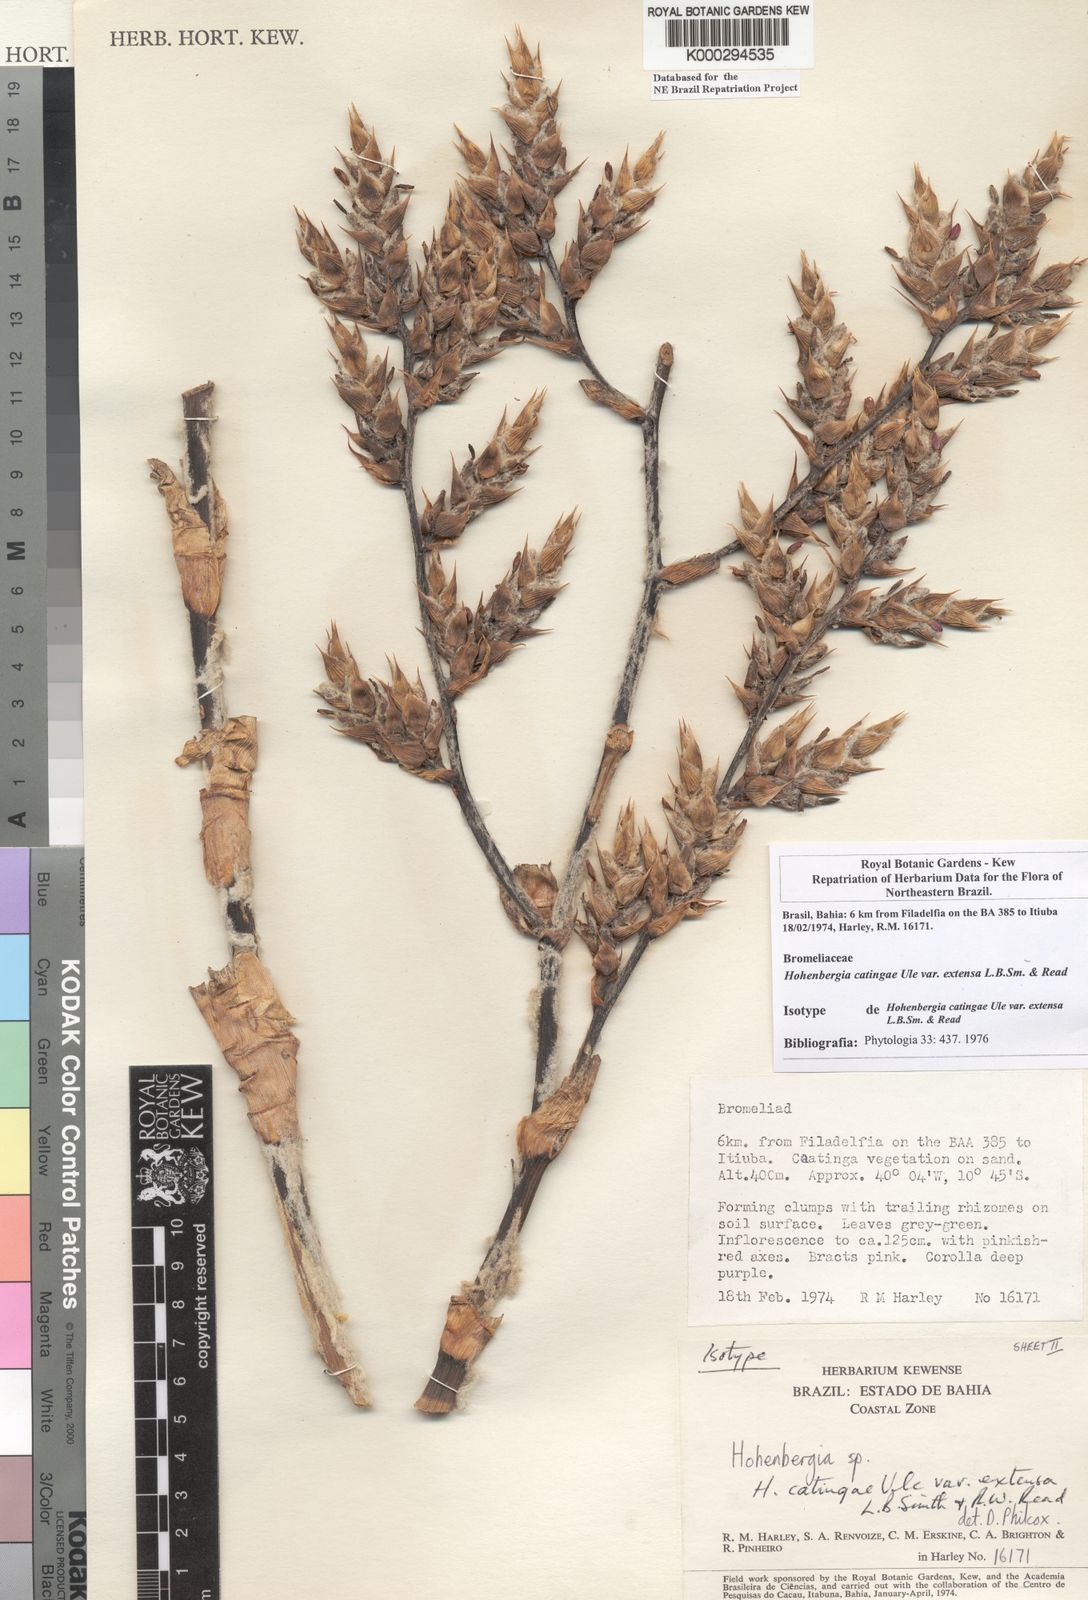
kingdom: Plantae
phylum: Tracheophyta
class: Liliopsida
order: Poales
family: Bromeliaceae
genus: Hohenbergia
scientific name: Hohenbergia catingae
